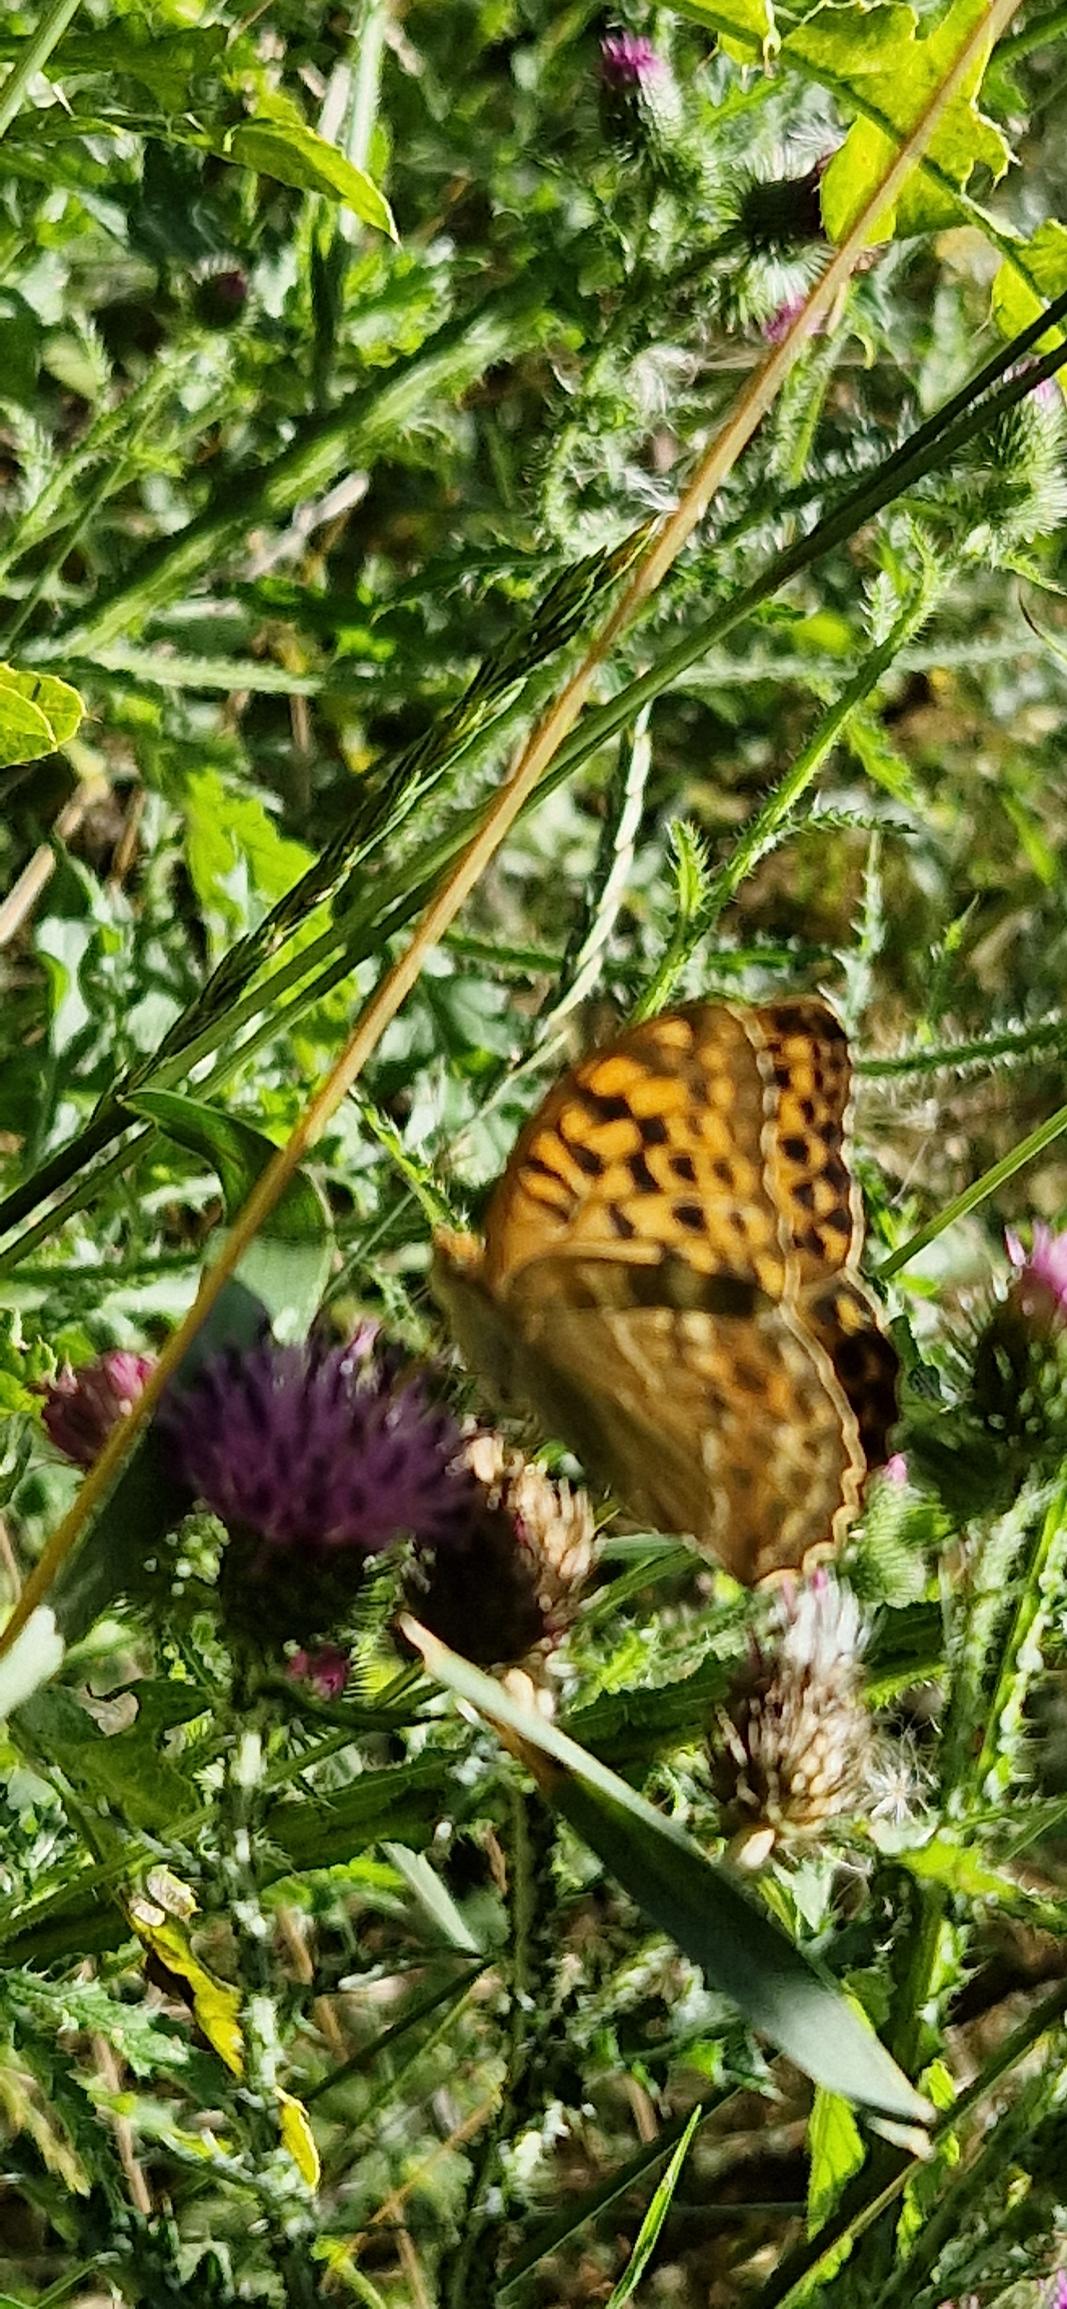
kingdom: Animalia
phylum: Arthropoda
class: Insecta
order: Lepidoptera
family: Nymphalidae
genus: Argynnis
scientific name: Argynnis paphia
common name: Kejserkåbe
